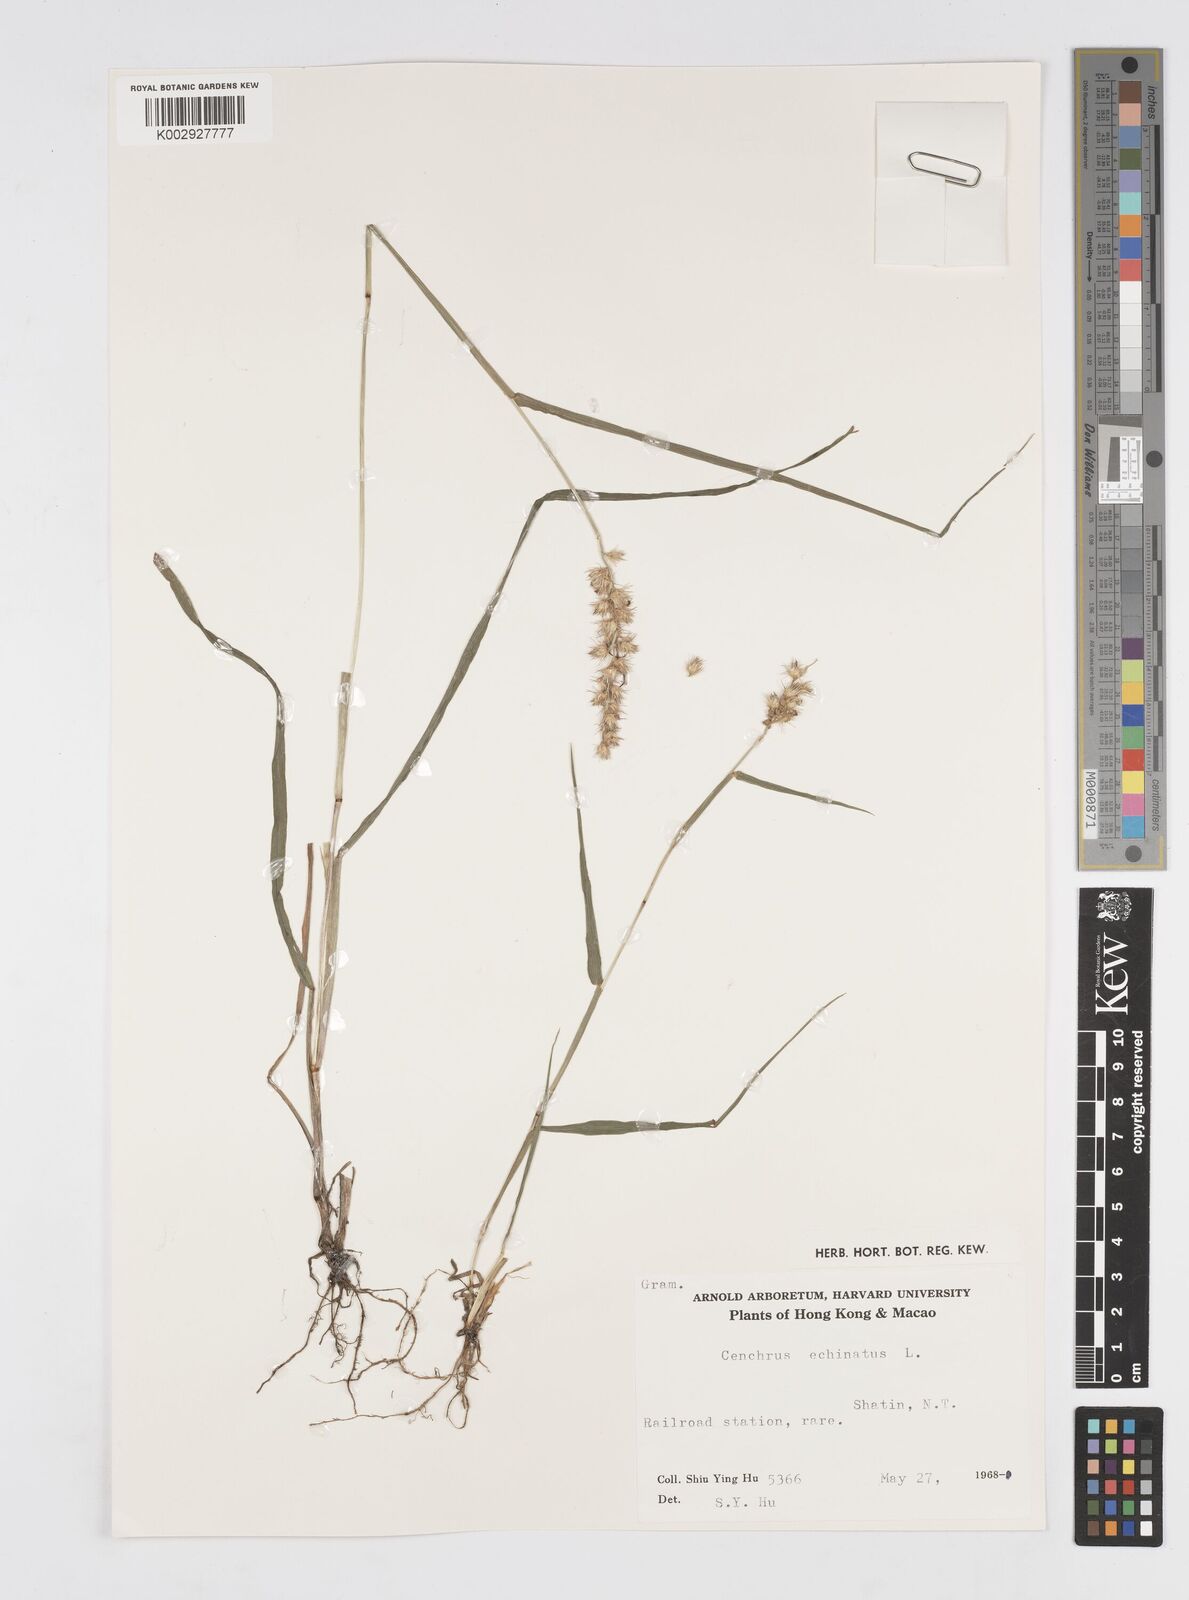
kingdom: Plantae
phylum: Tracheophyta
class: Liliopsida
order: Poales
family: Poaceae
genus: Cenchrus
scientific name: Cenchrus echinatus
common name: Southern sandbur
